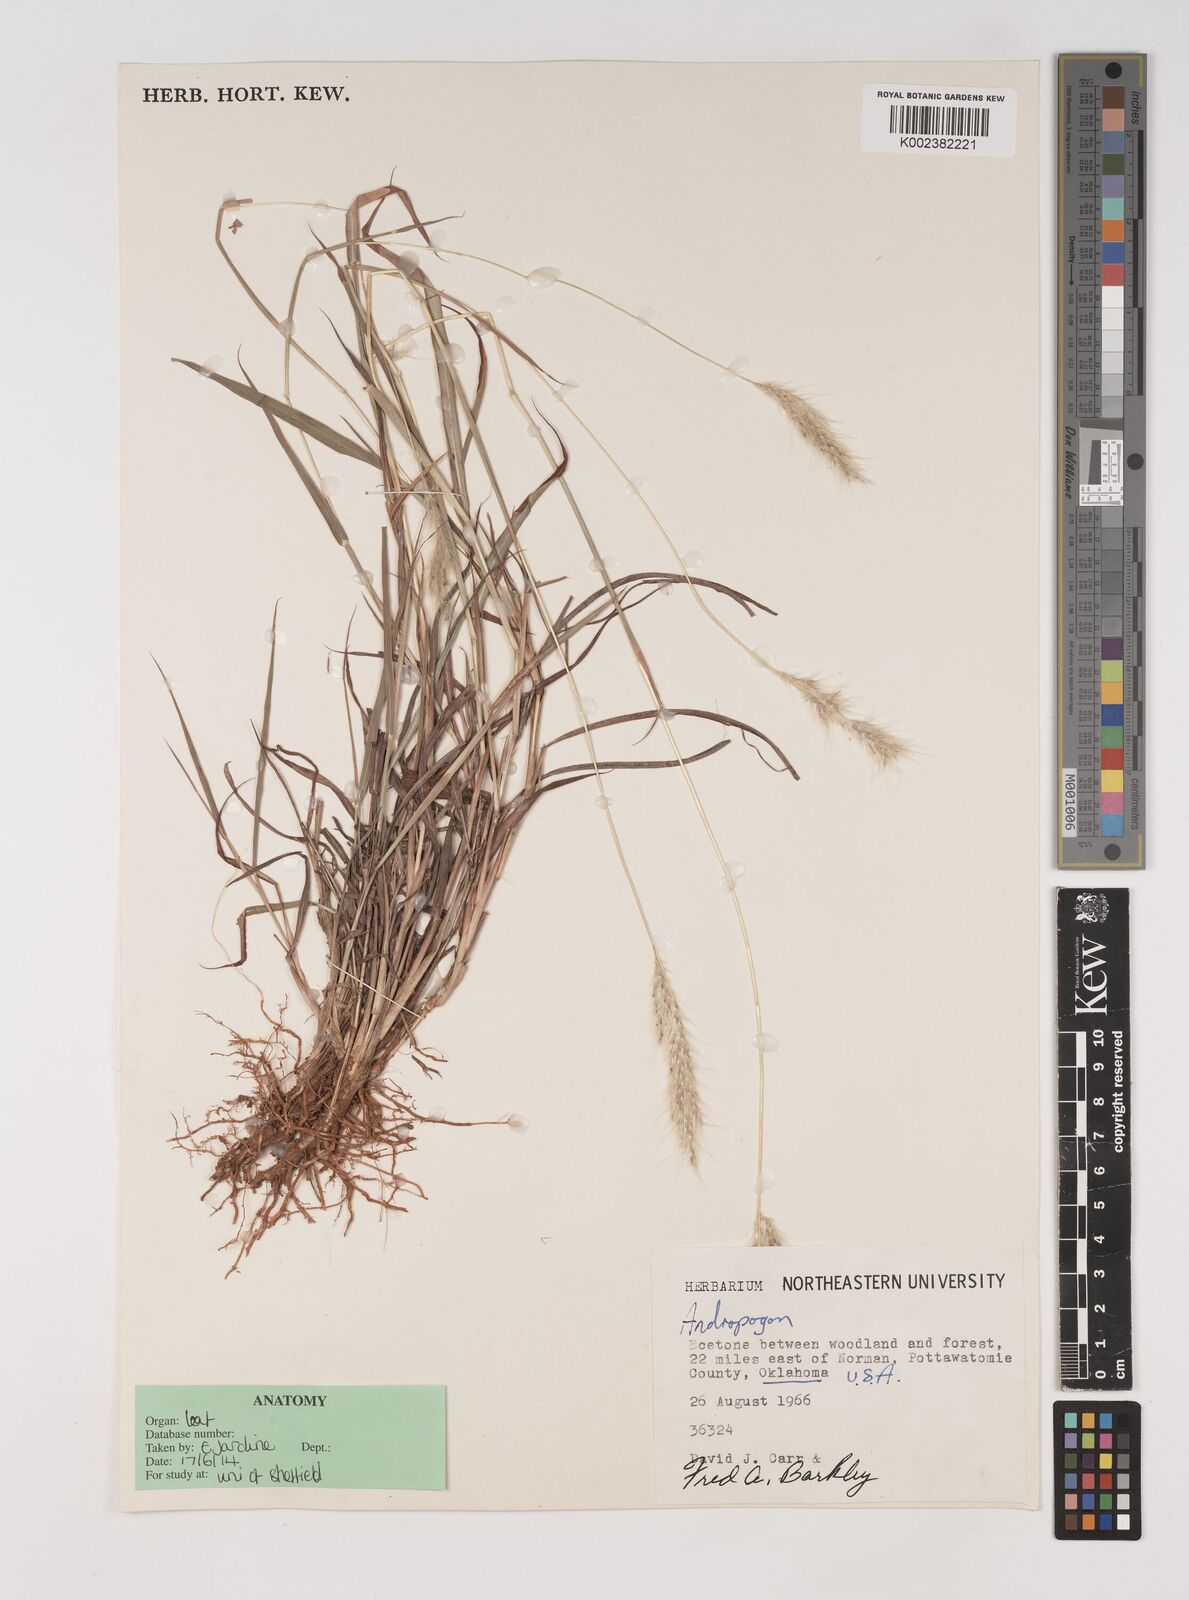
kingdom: Plantae
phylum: Tracheophyta
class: Liliopsida
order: Poales
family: Poaceae
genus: Bothriochloa
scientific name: Bothriochloa longipaniculata
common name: Longspike silver bluestem
